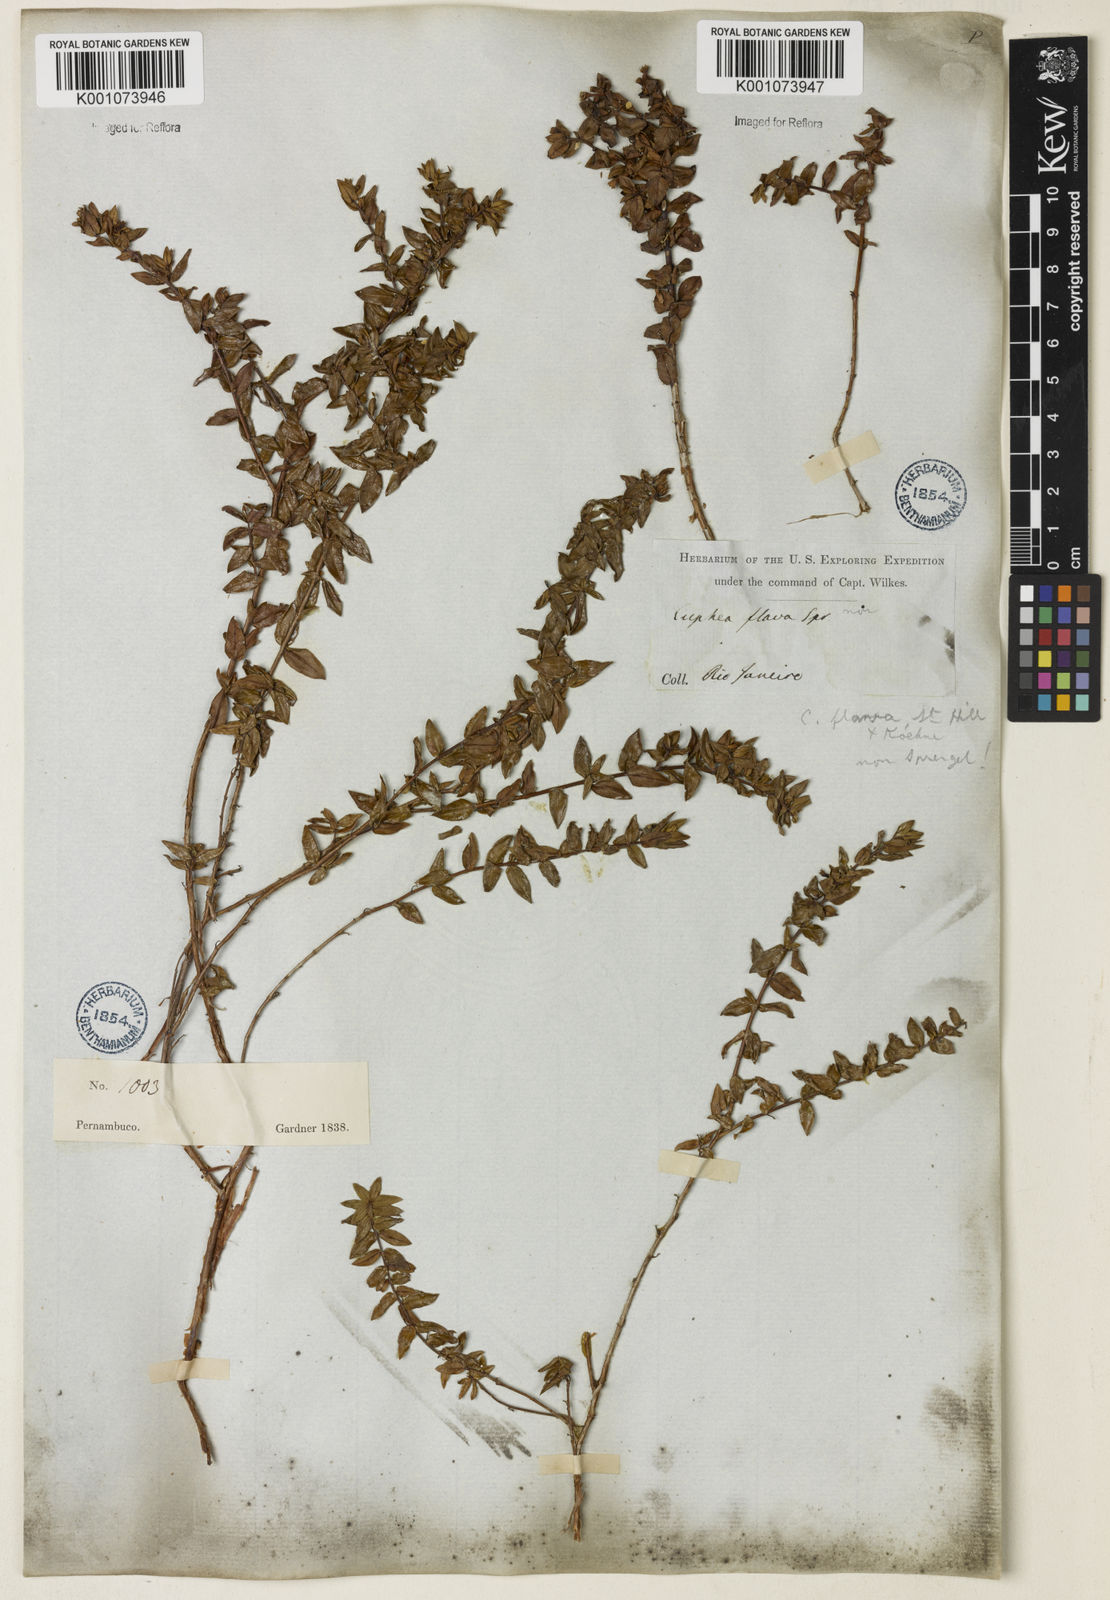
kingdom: Plantae
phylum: Tracheophyta
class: Magnoliopsida
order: Myrtales
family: Lythraceae
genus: Cuphea
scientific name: Cuphea flava
